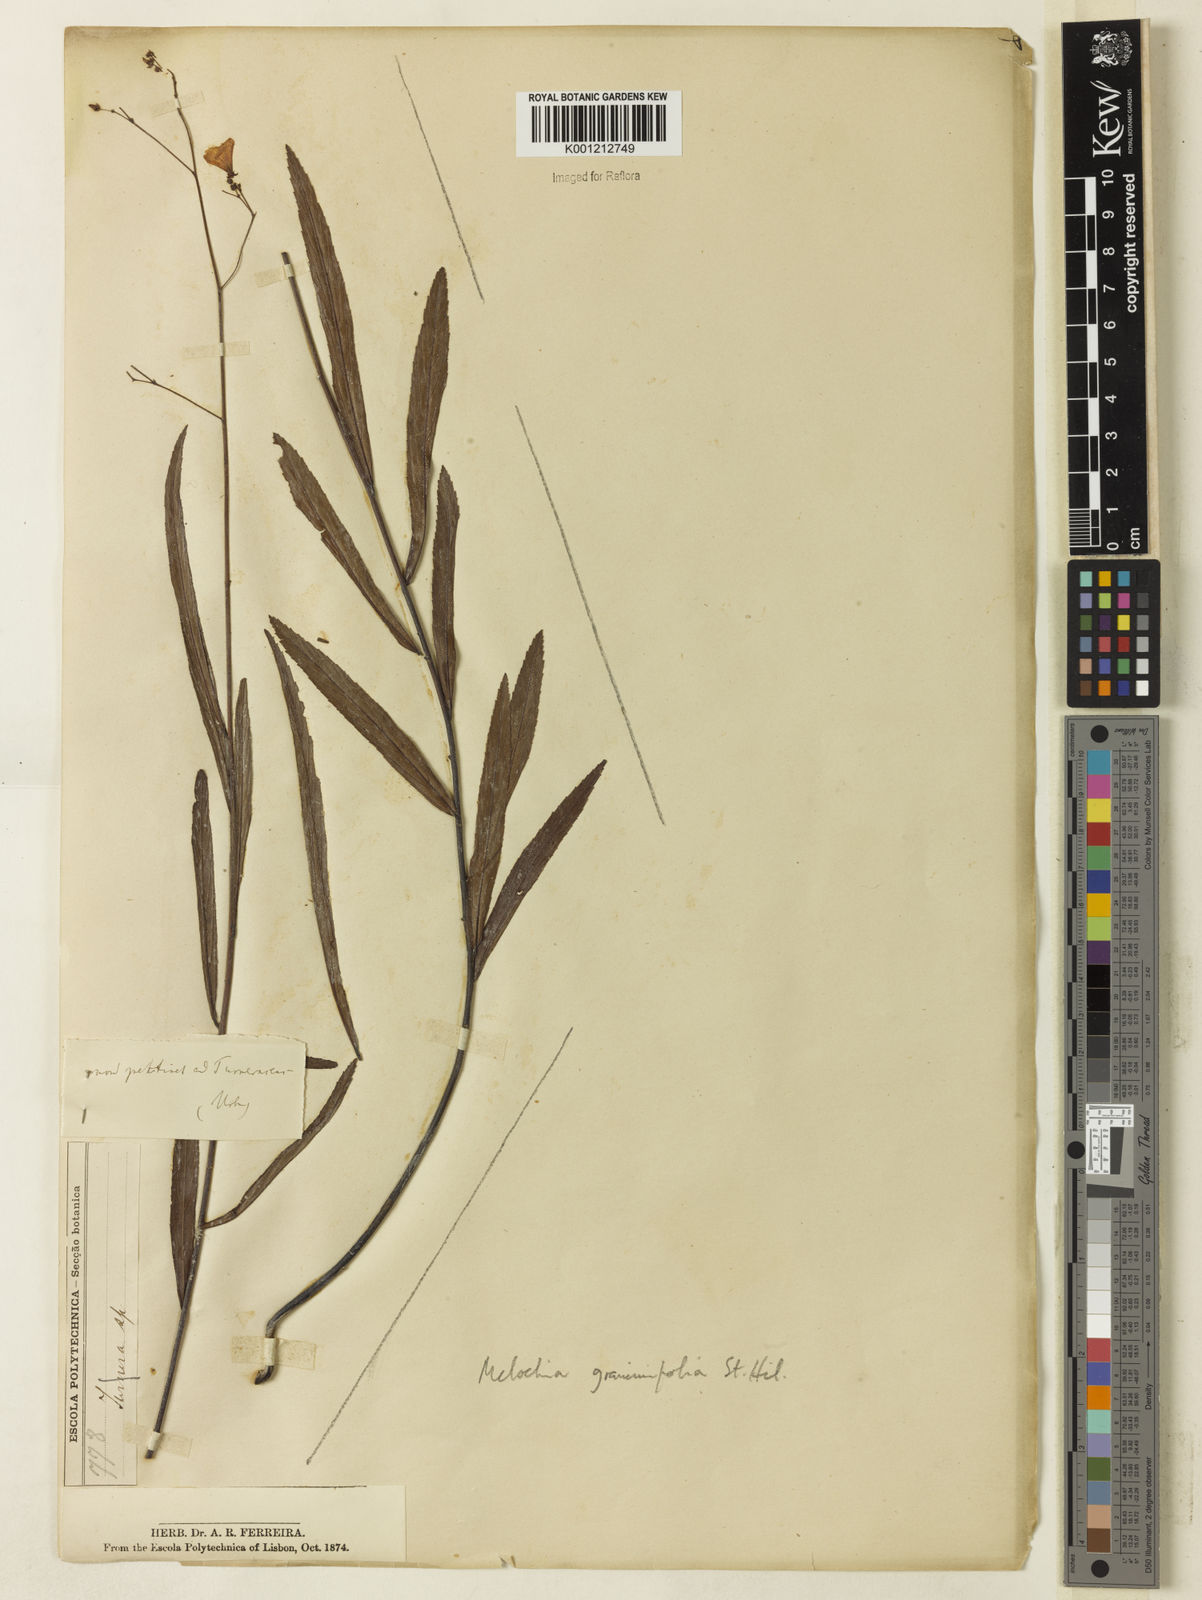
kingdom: Plantae
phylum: Tracheophyta
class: Magnoliopsida
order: Malvales
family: Malvaceae
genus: Melochia
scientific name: Melochia graminifolia
